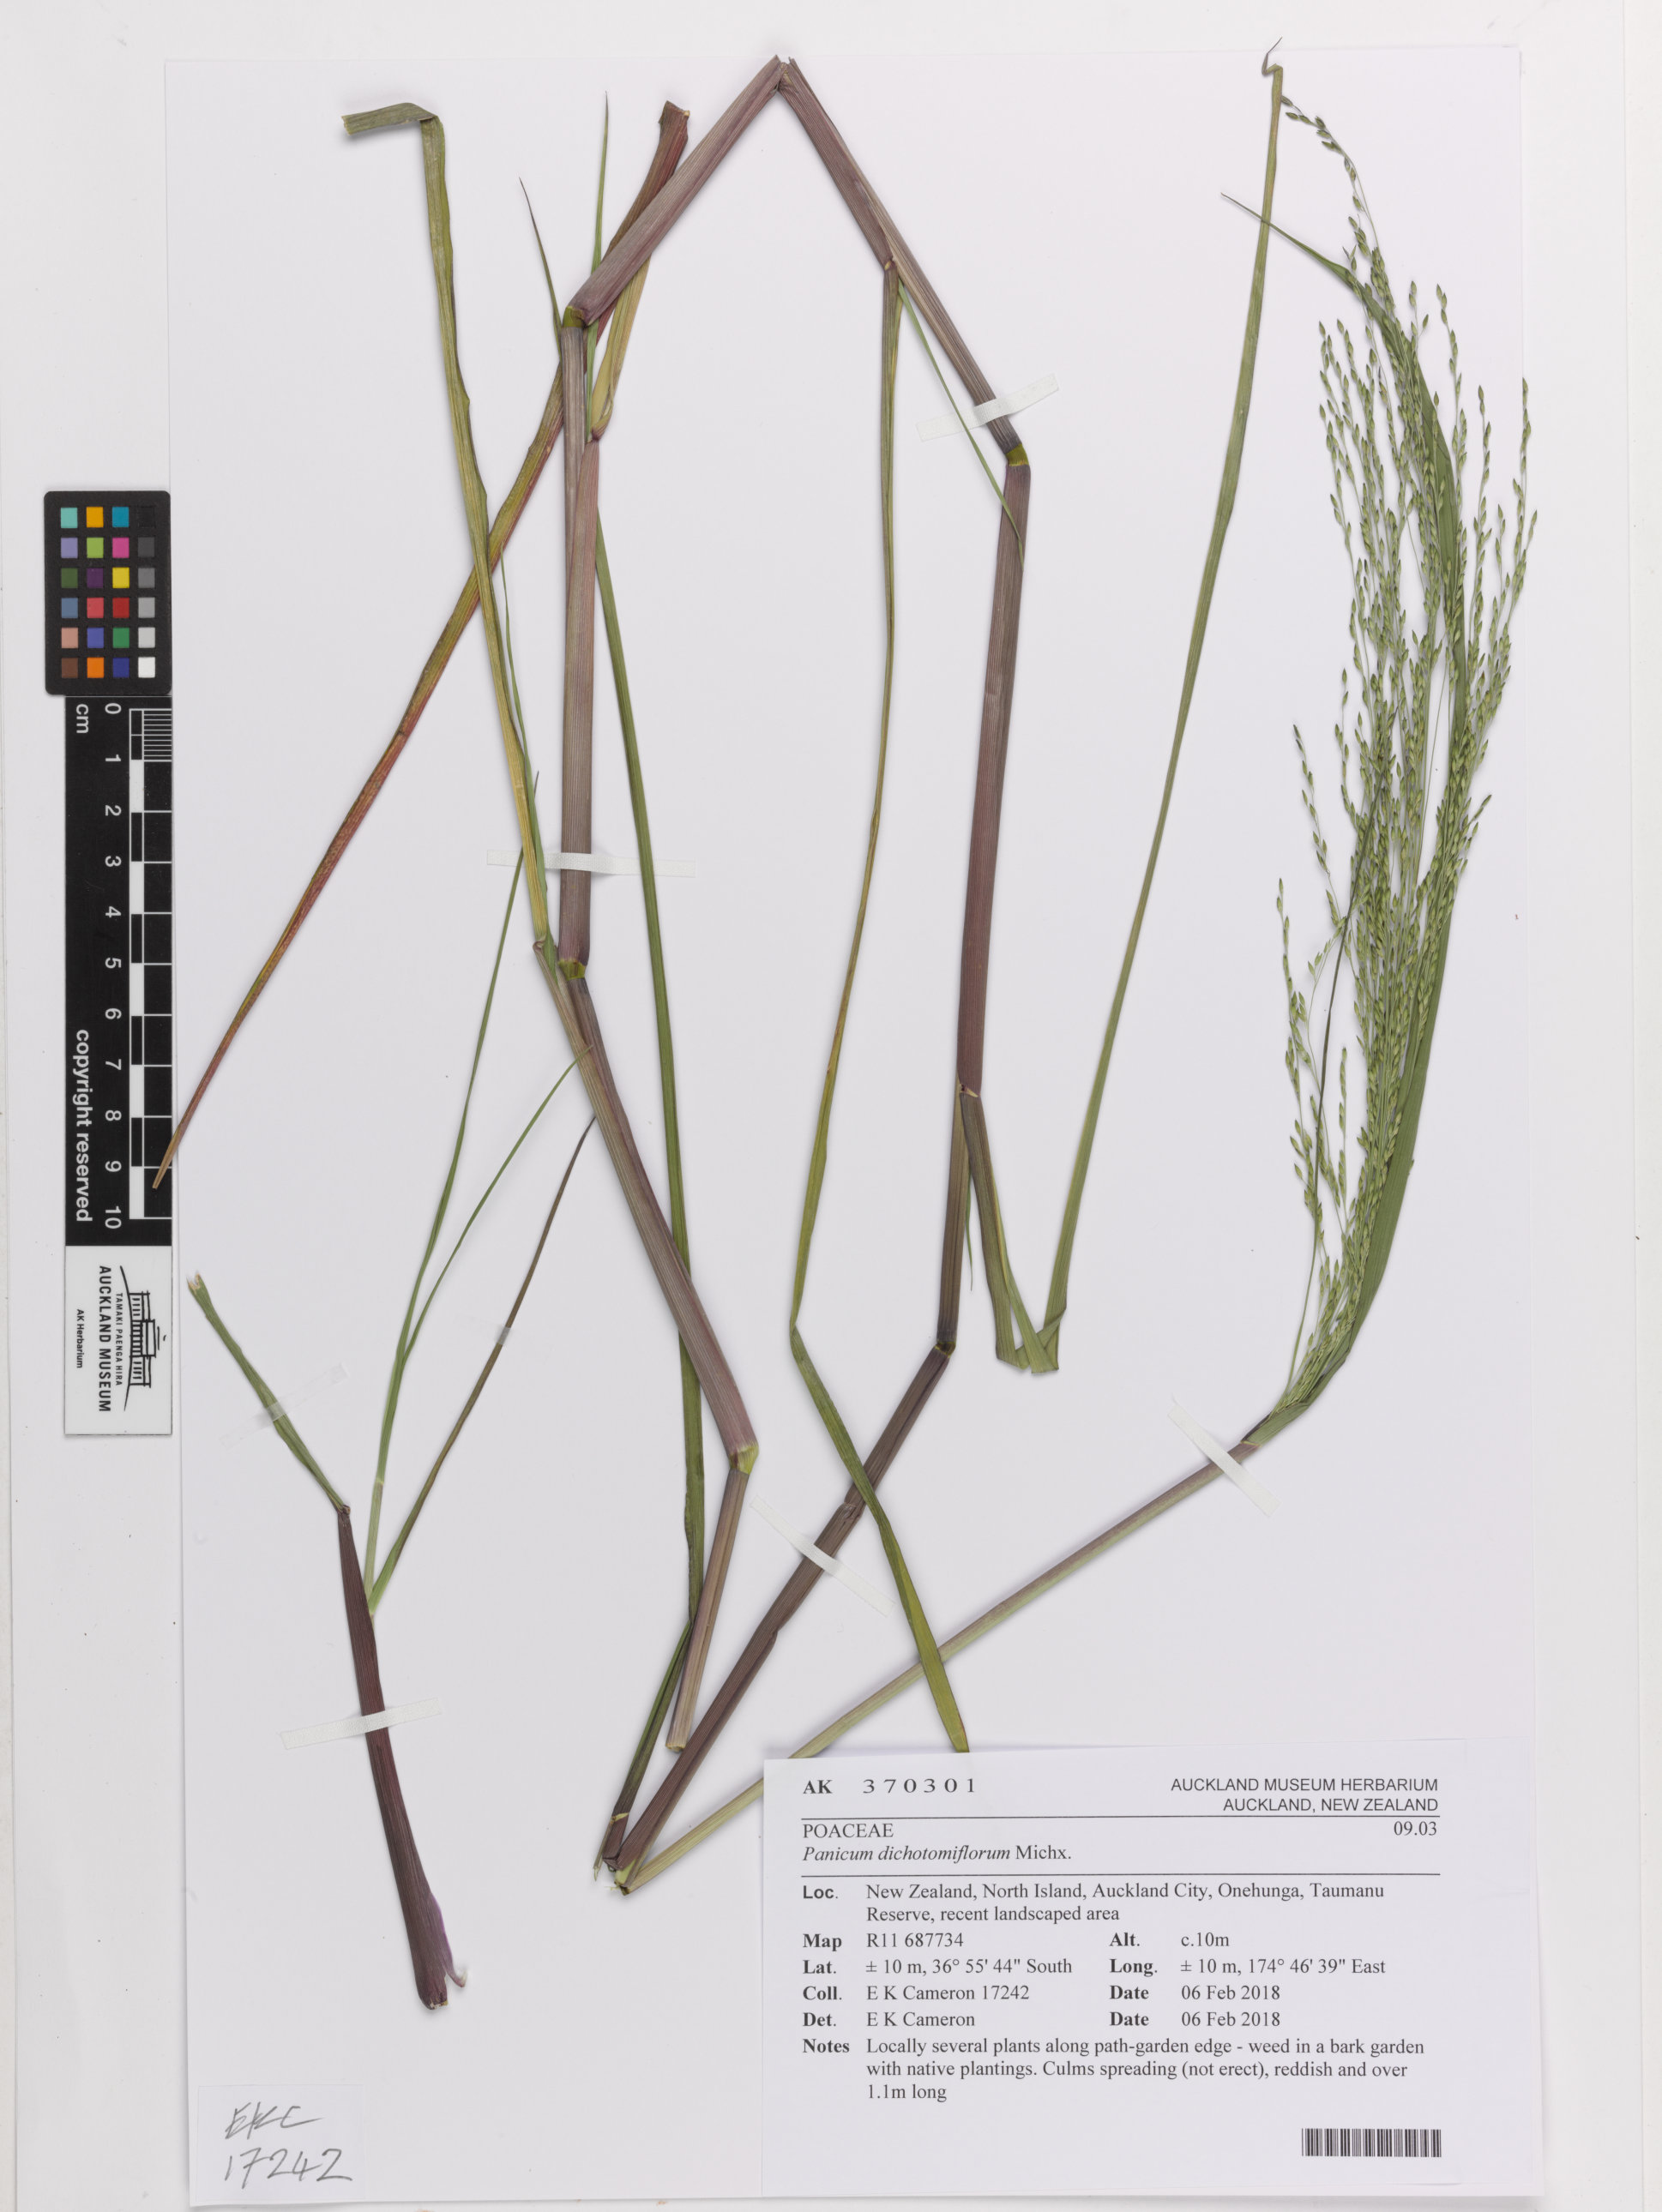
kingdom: Plantae
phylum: Tracheophyta
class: Liliopsida
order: Poales
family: Poaceae
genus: Panicum
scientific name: Panicum dichotomiflorum
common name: Autumn millet
